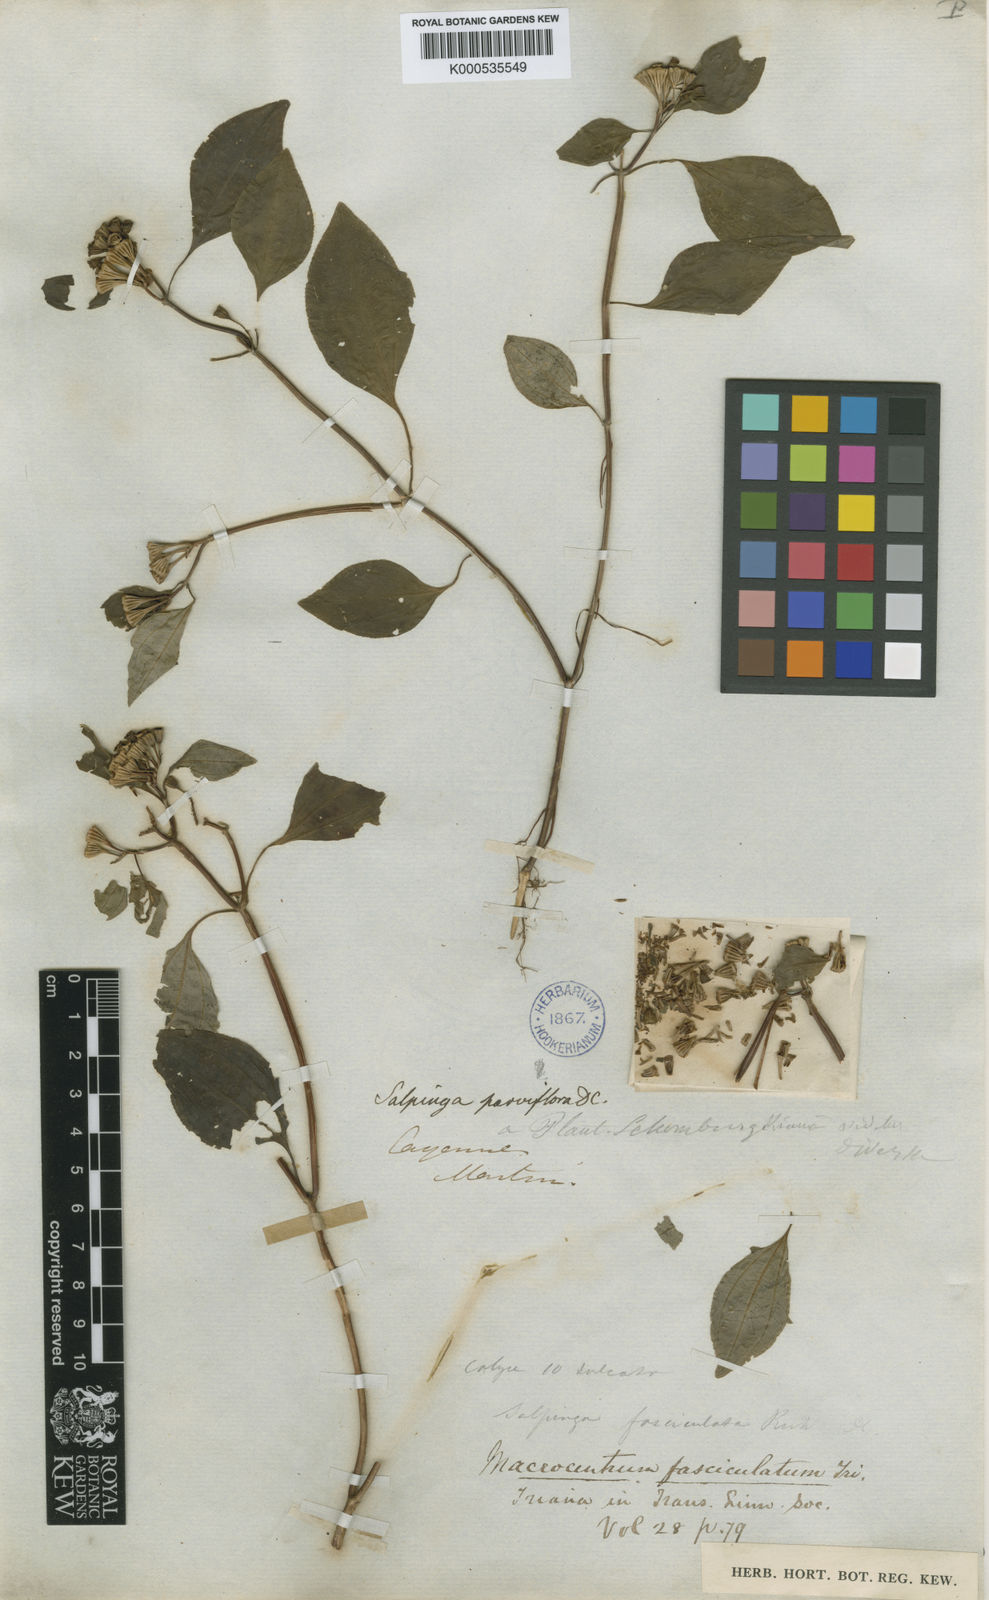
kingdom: Plantae
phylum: Tracheophyta
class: Magnoliopsida
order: Myrtales
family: Melastomataceae
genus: Macrocentrum
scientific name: Macrocentrum fasciculatum
